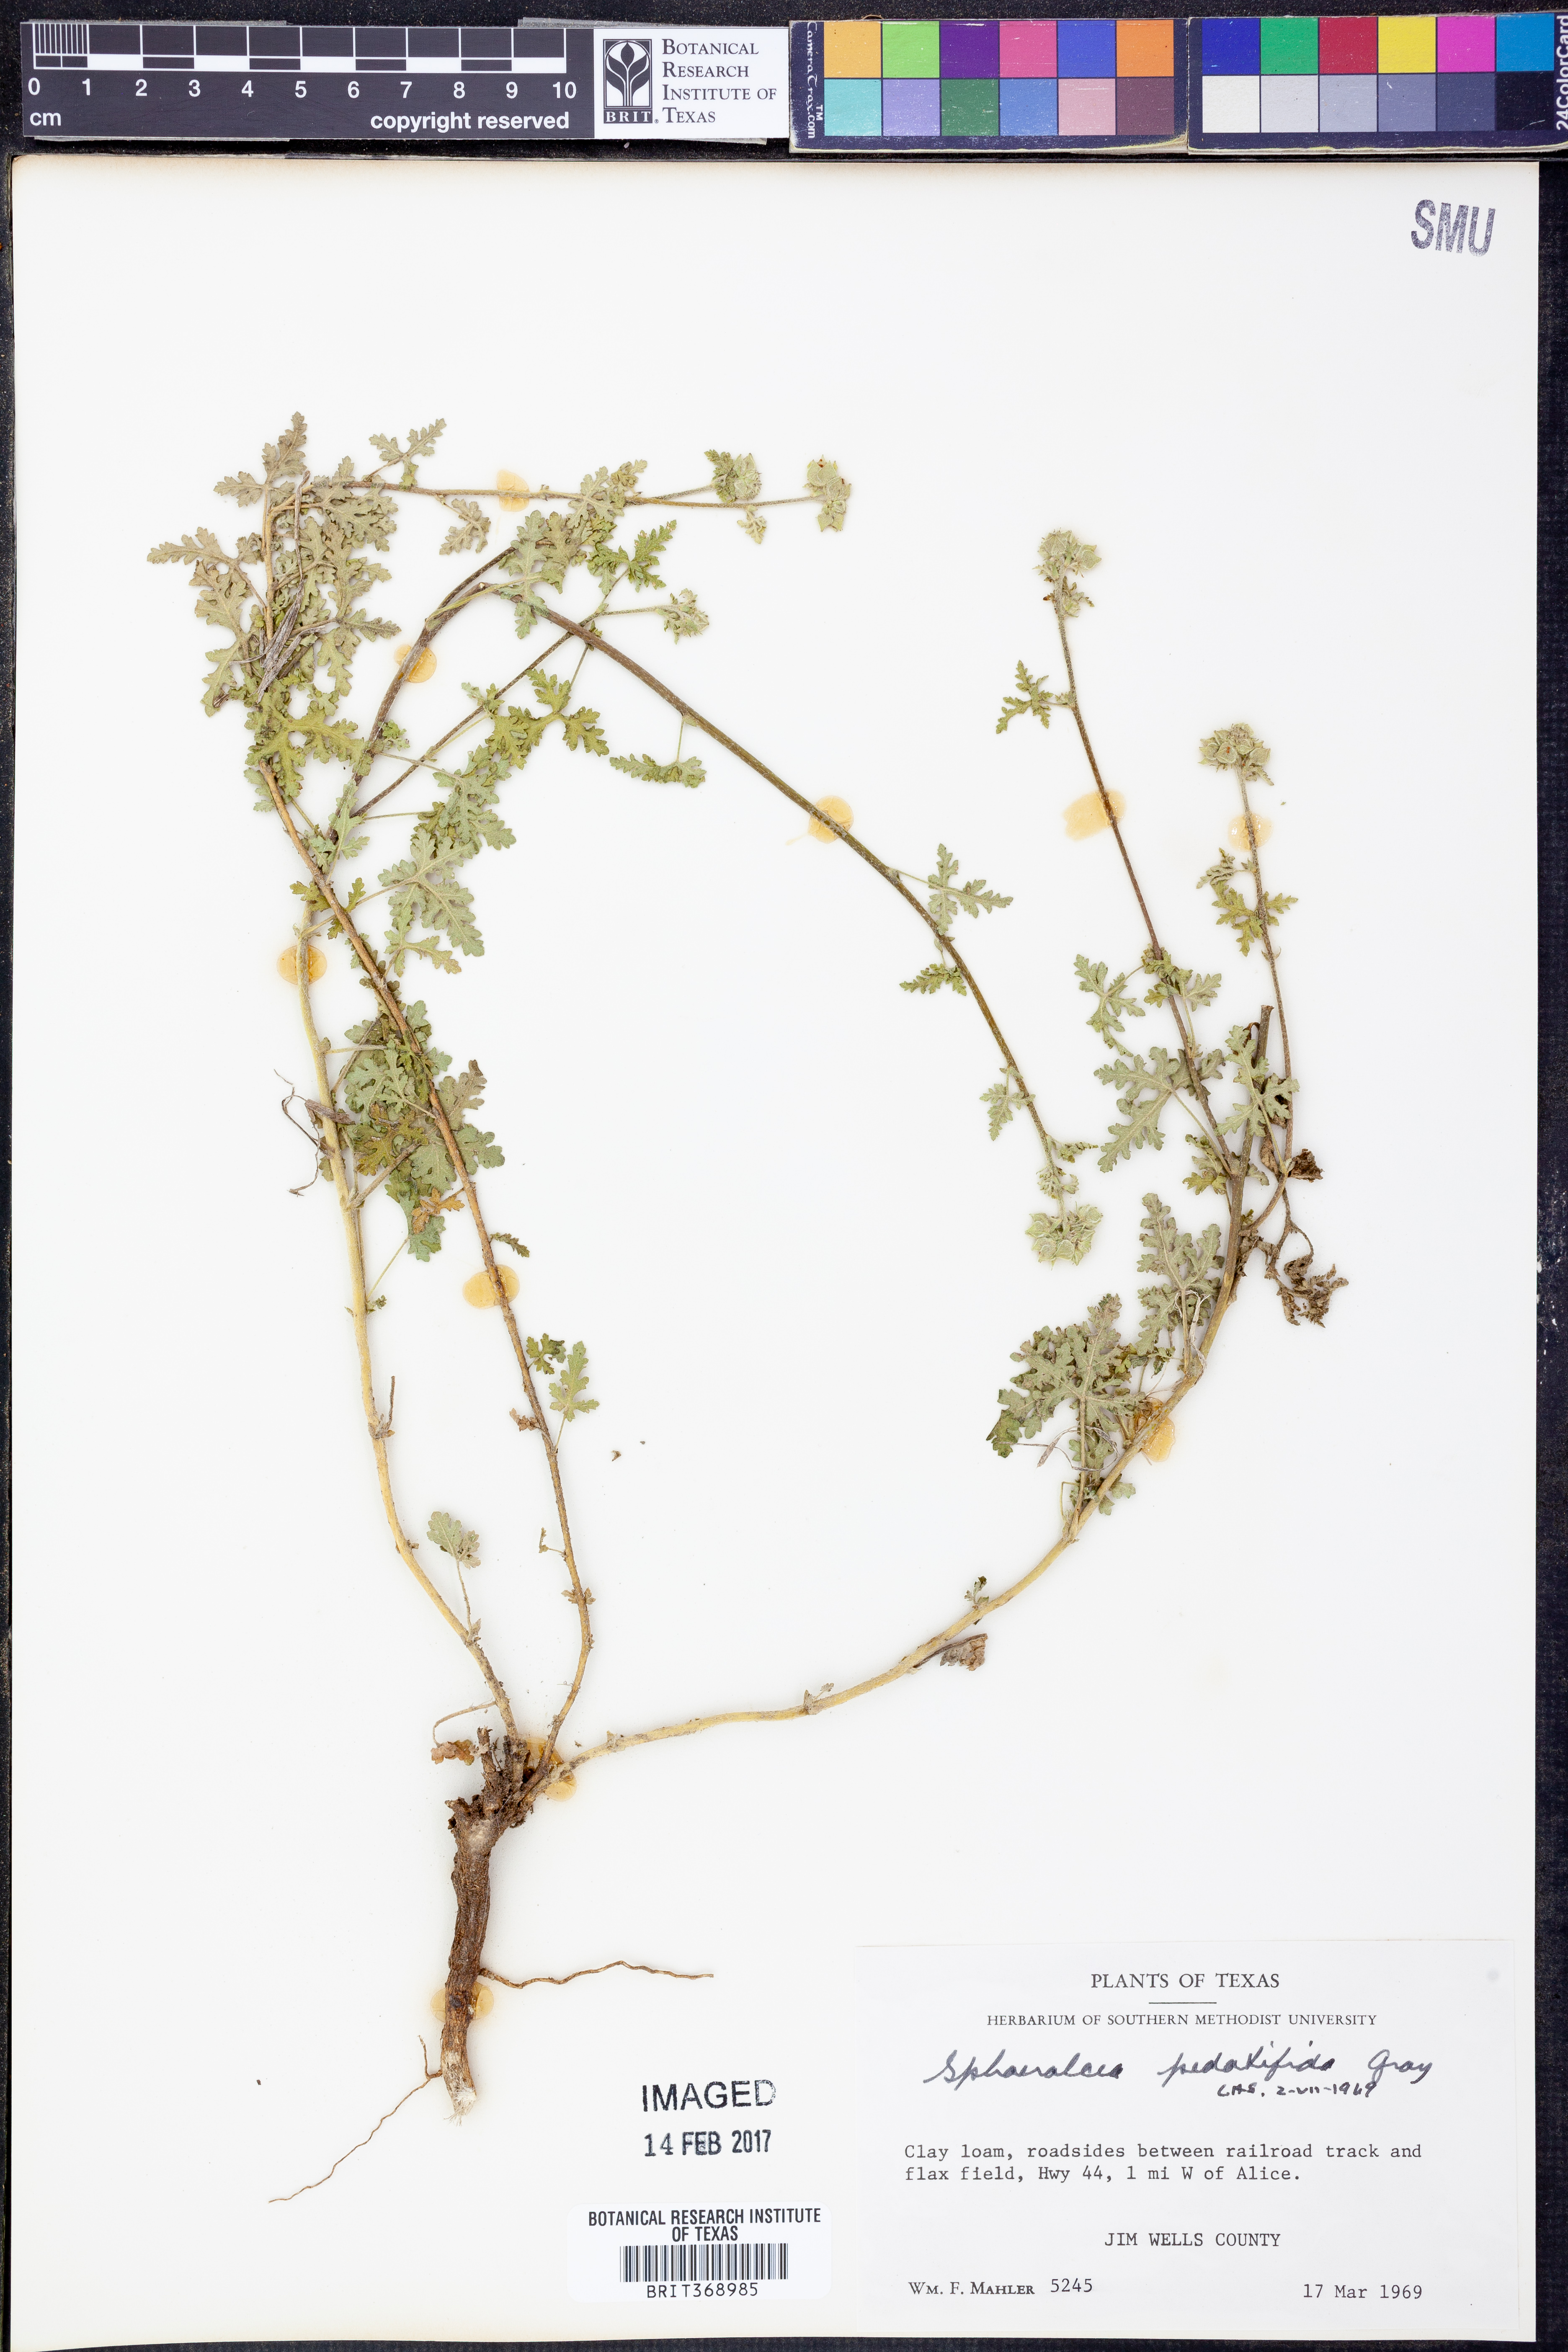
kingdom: Plantae
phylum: Tracheophyta
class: Magnoliopsida
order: Malvales
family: Malvaceae
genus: Sphaeralcea
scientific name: Sphaeralcea grossulariifolia
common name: Current-leaf globe-mallow
